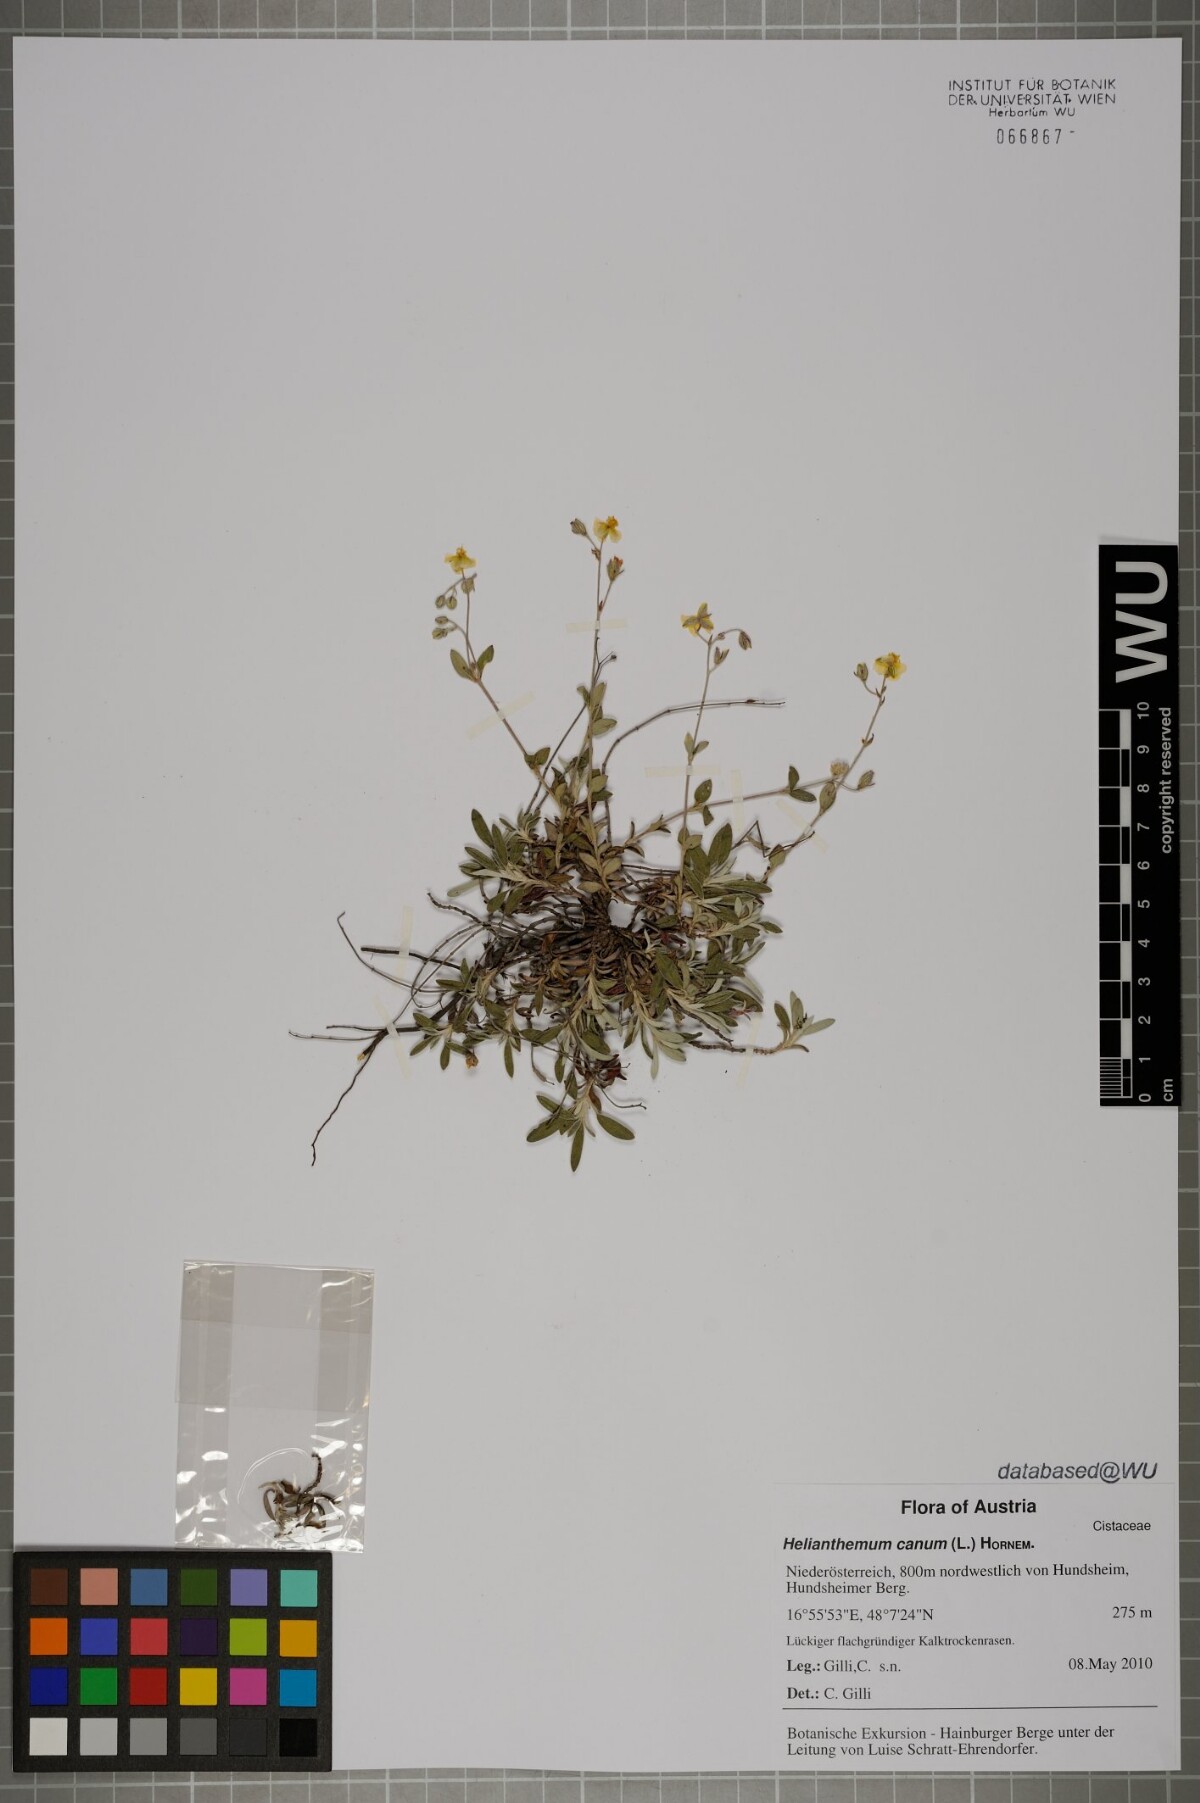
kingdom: Plantae
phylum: Tracheophyta
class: Magnoliopsida
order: Malvales
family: Cistaceae
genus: Helianthemum
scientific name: Helianthemum canum
